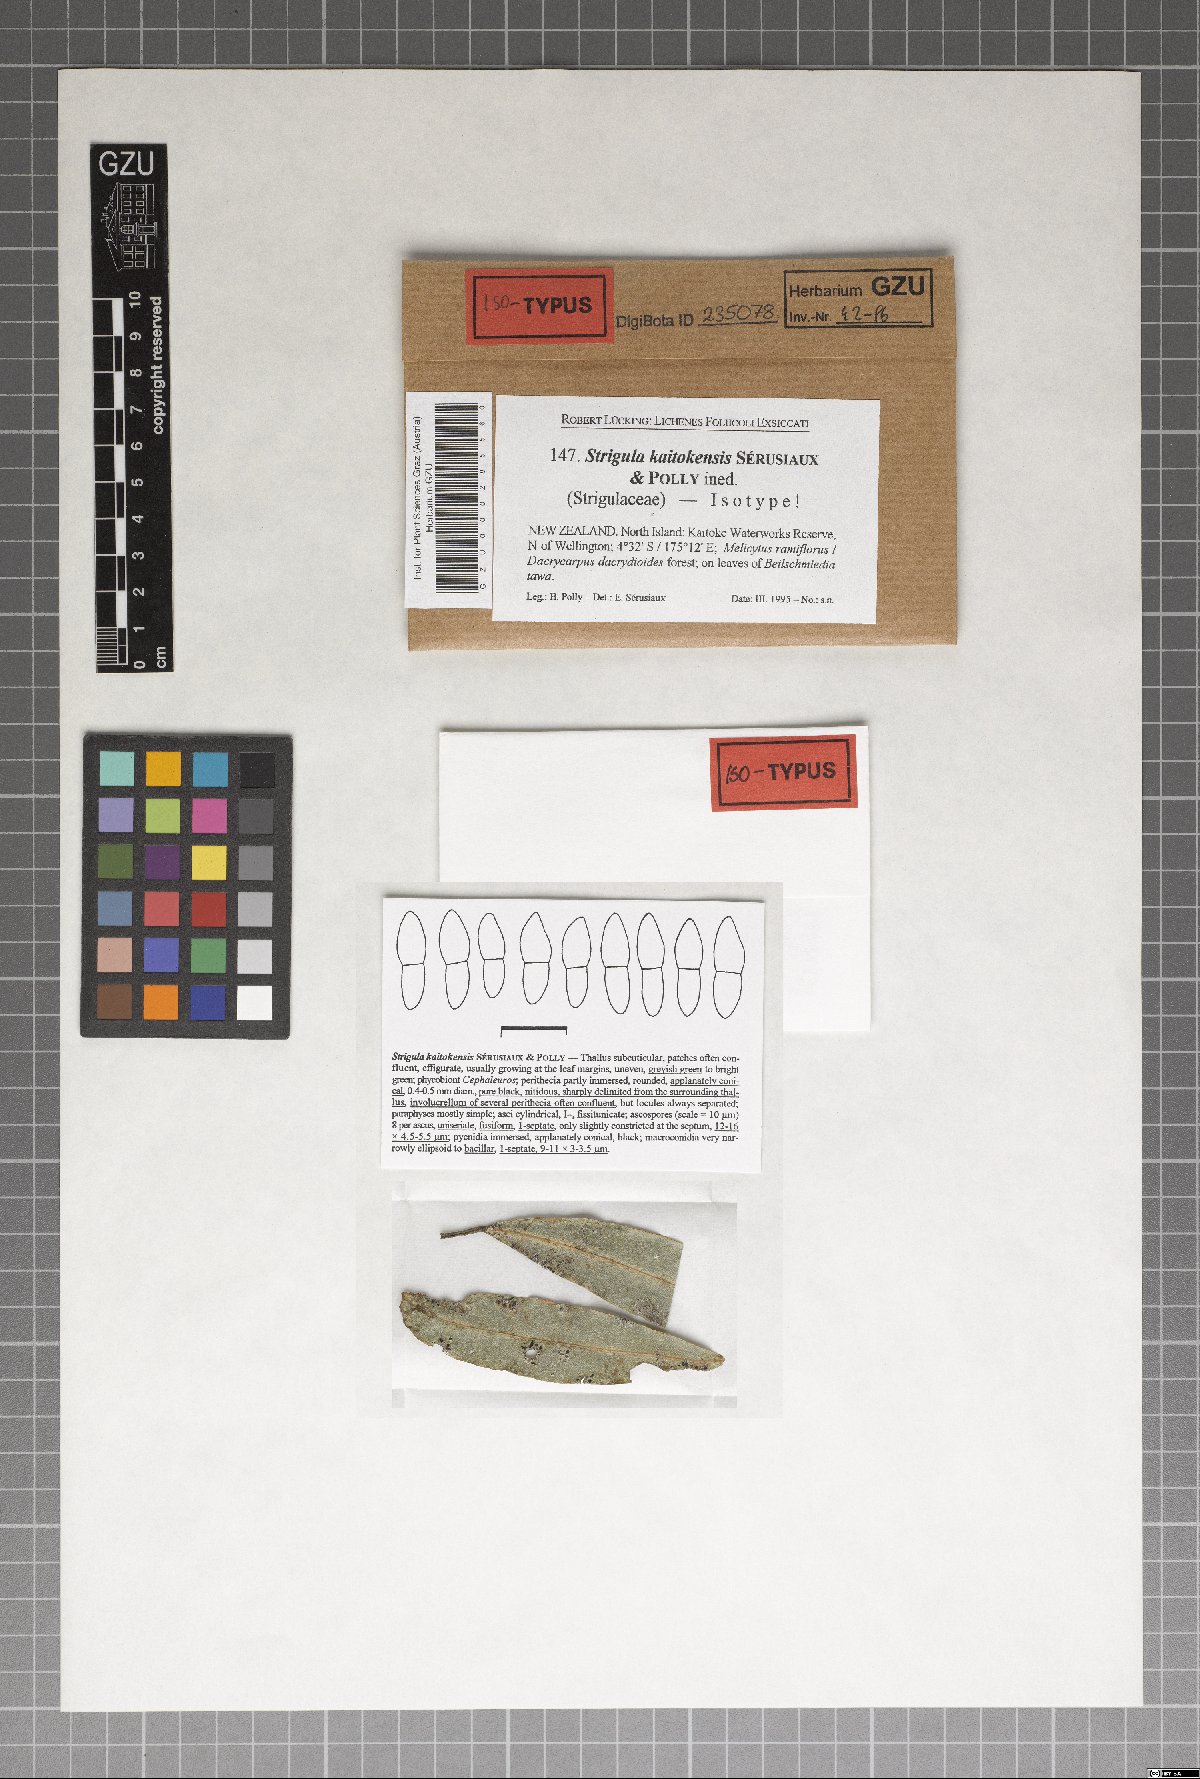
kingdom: Fungi
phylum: Ascomycota
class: Dothideomycetes
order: Strigulales
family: Strigulaceae
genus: Strigula
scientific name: Strigula
